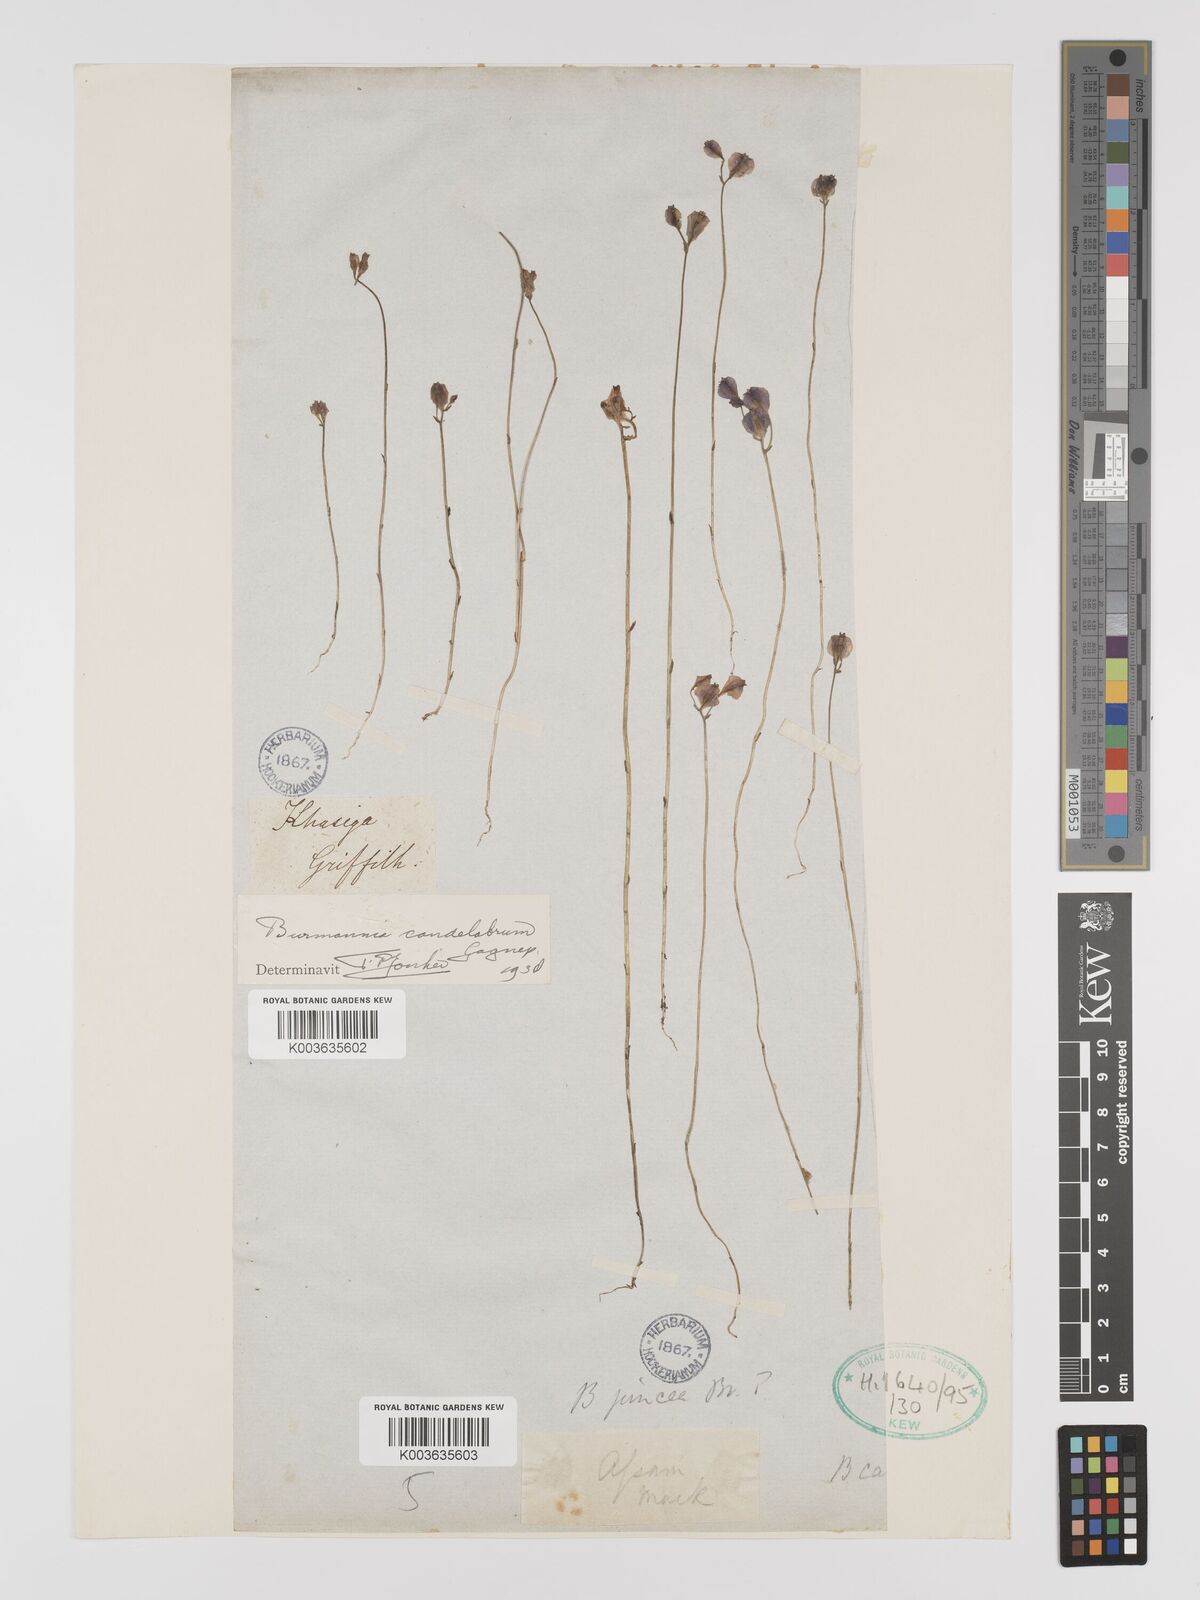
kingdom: Plantae
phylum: Tracheophyta
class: Liliopsida
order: Dioscoreales
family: Burmanniaceae
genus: Burmannia
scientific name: Burmannia candelabrum
